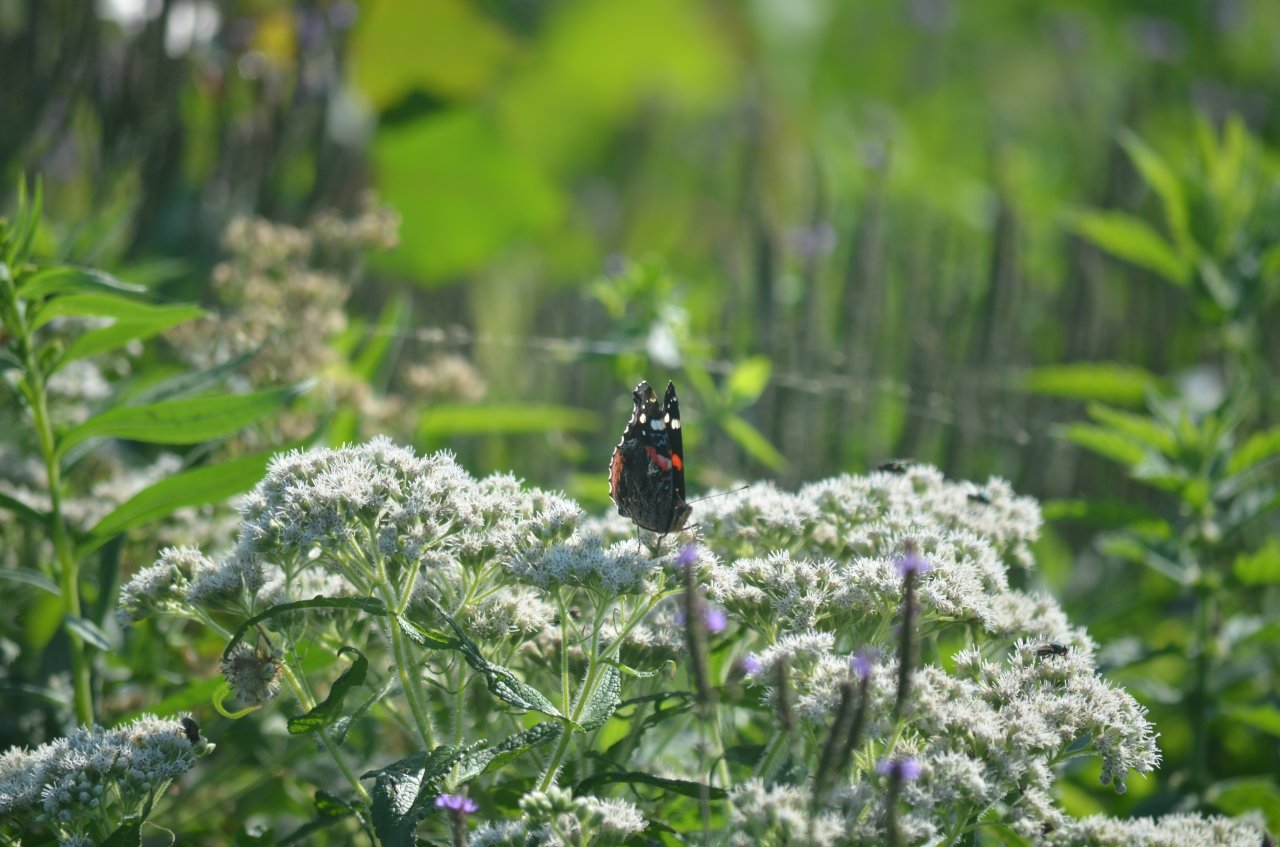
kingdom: Animalia
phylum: Arthropoda
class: Insecta
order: Lepidoptera
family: Nymphalidae
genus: Vanessa
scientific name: Vanessa atalanta
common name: Red Admiral
